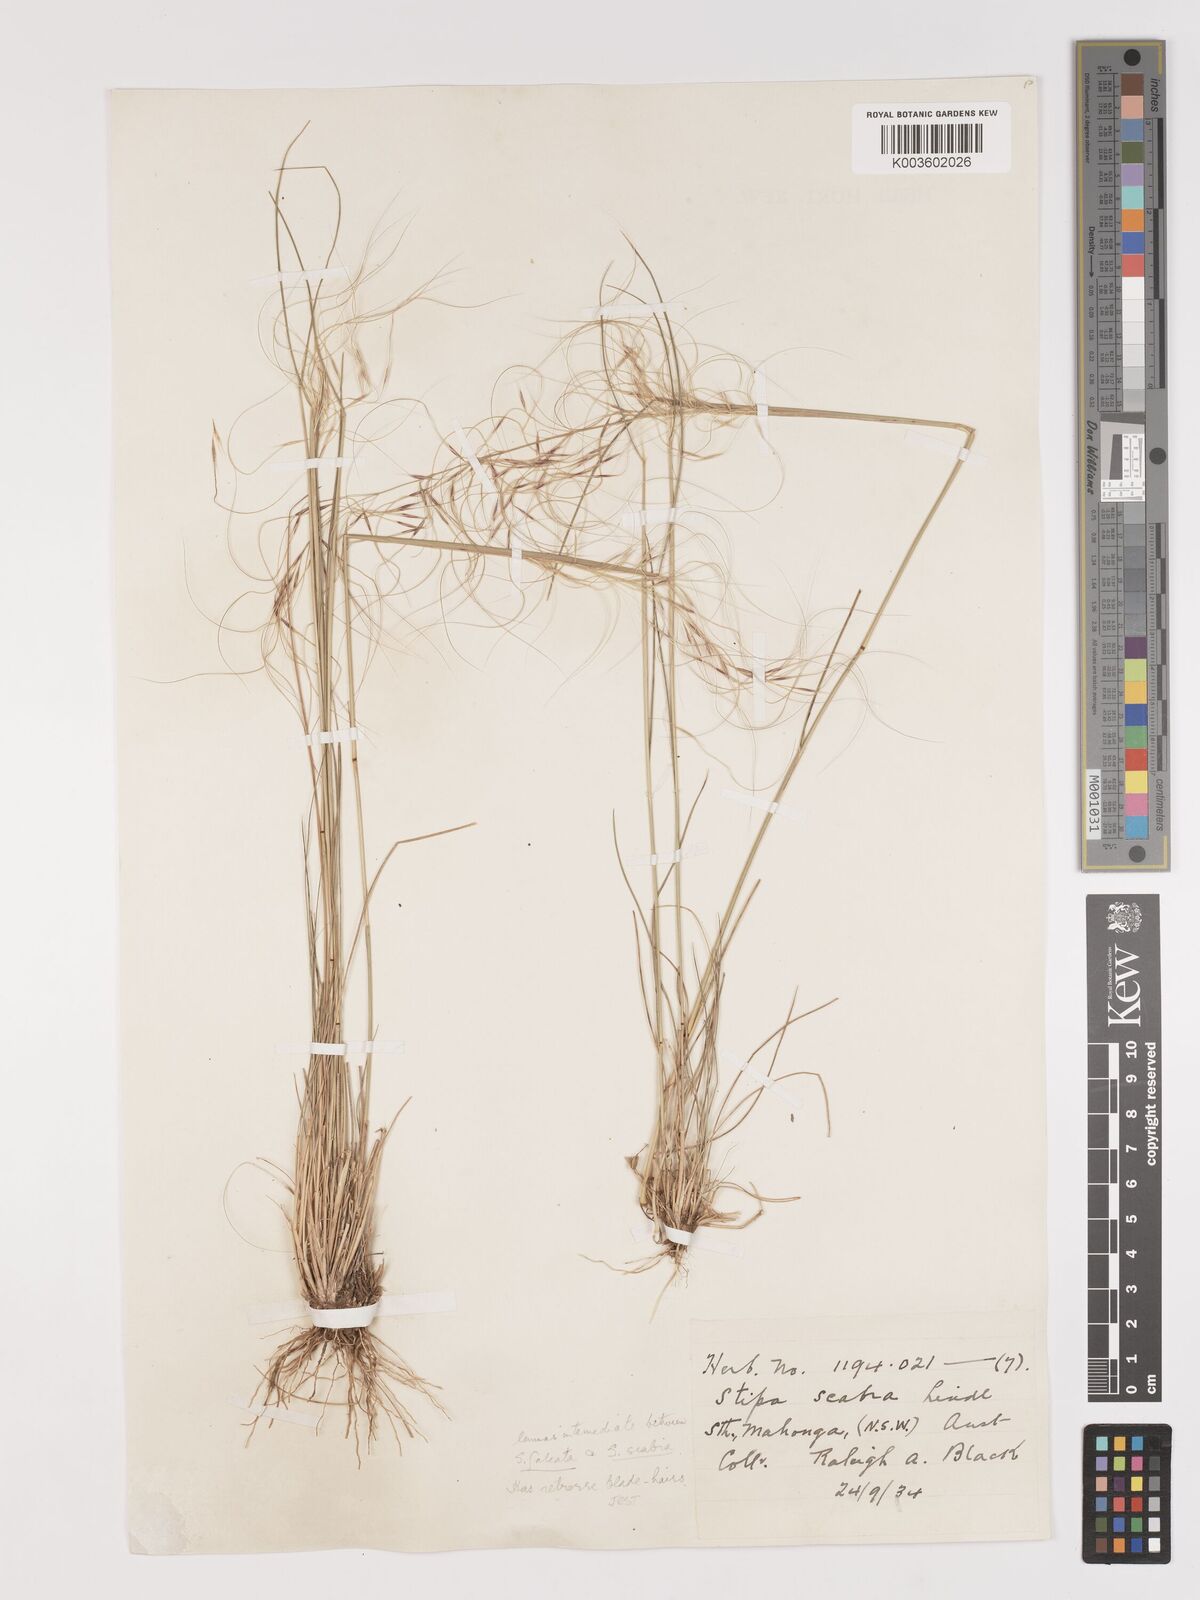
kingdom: Plantae
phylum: Tracheophyta
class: Liliopsida
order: Poales
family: Poaceae
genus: Austrostipa
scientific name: Austrostipa scabra
